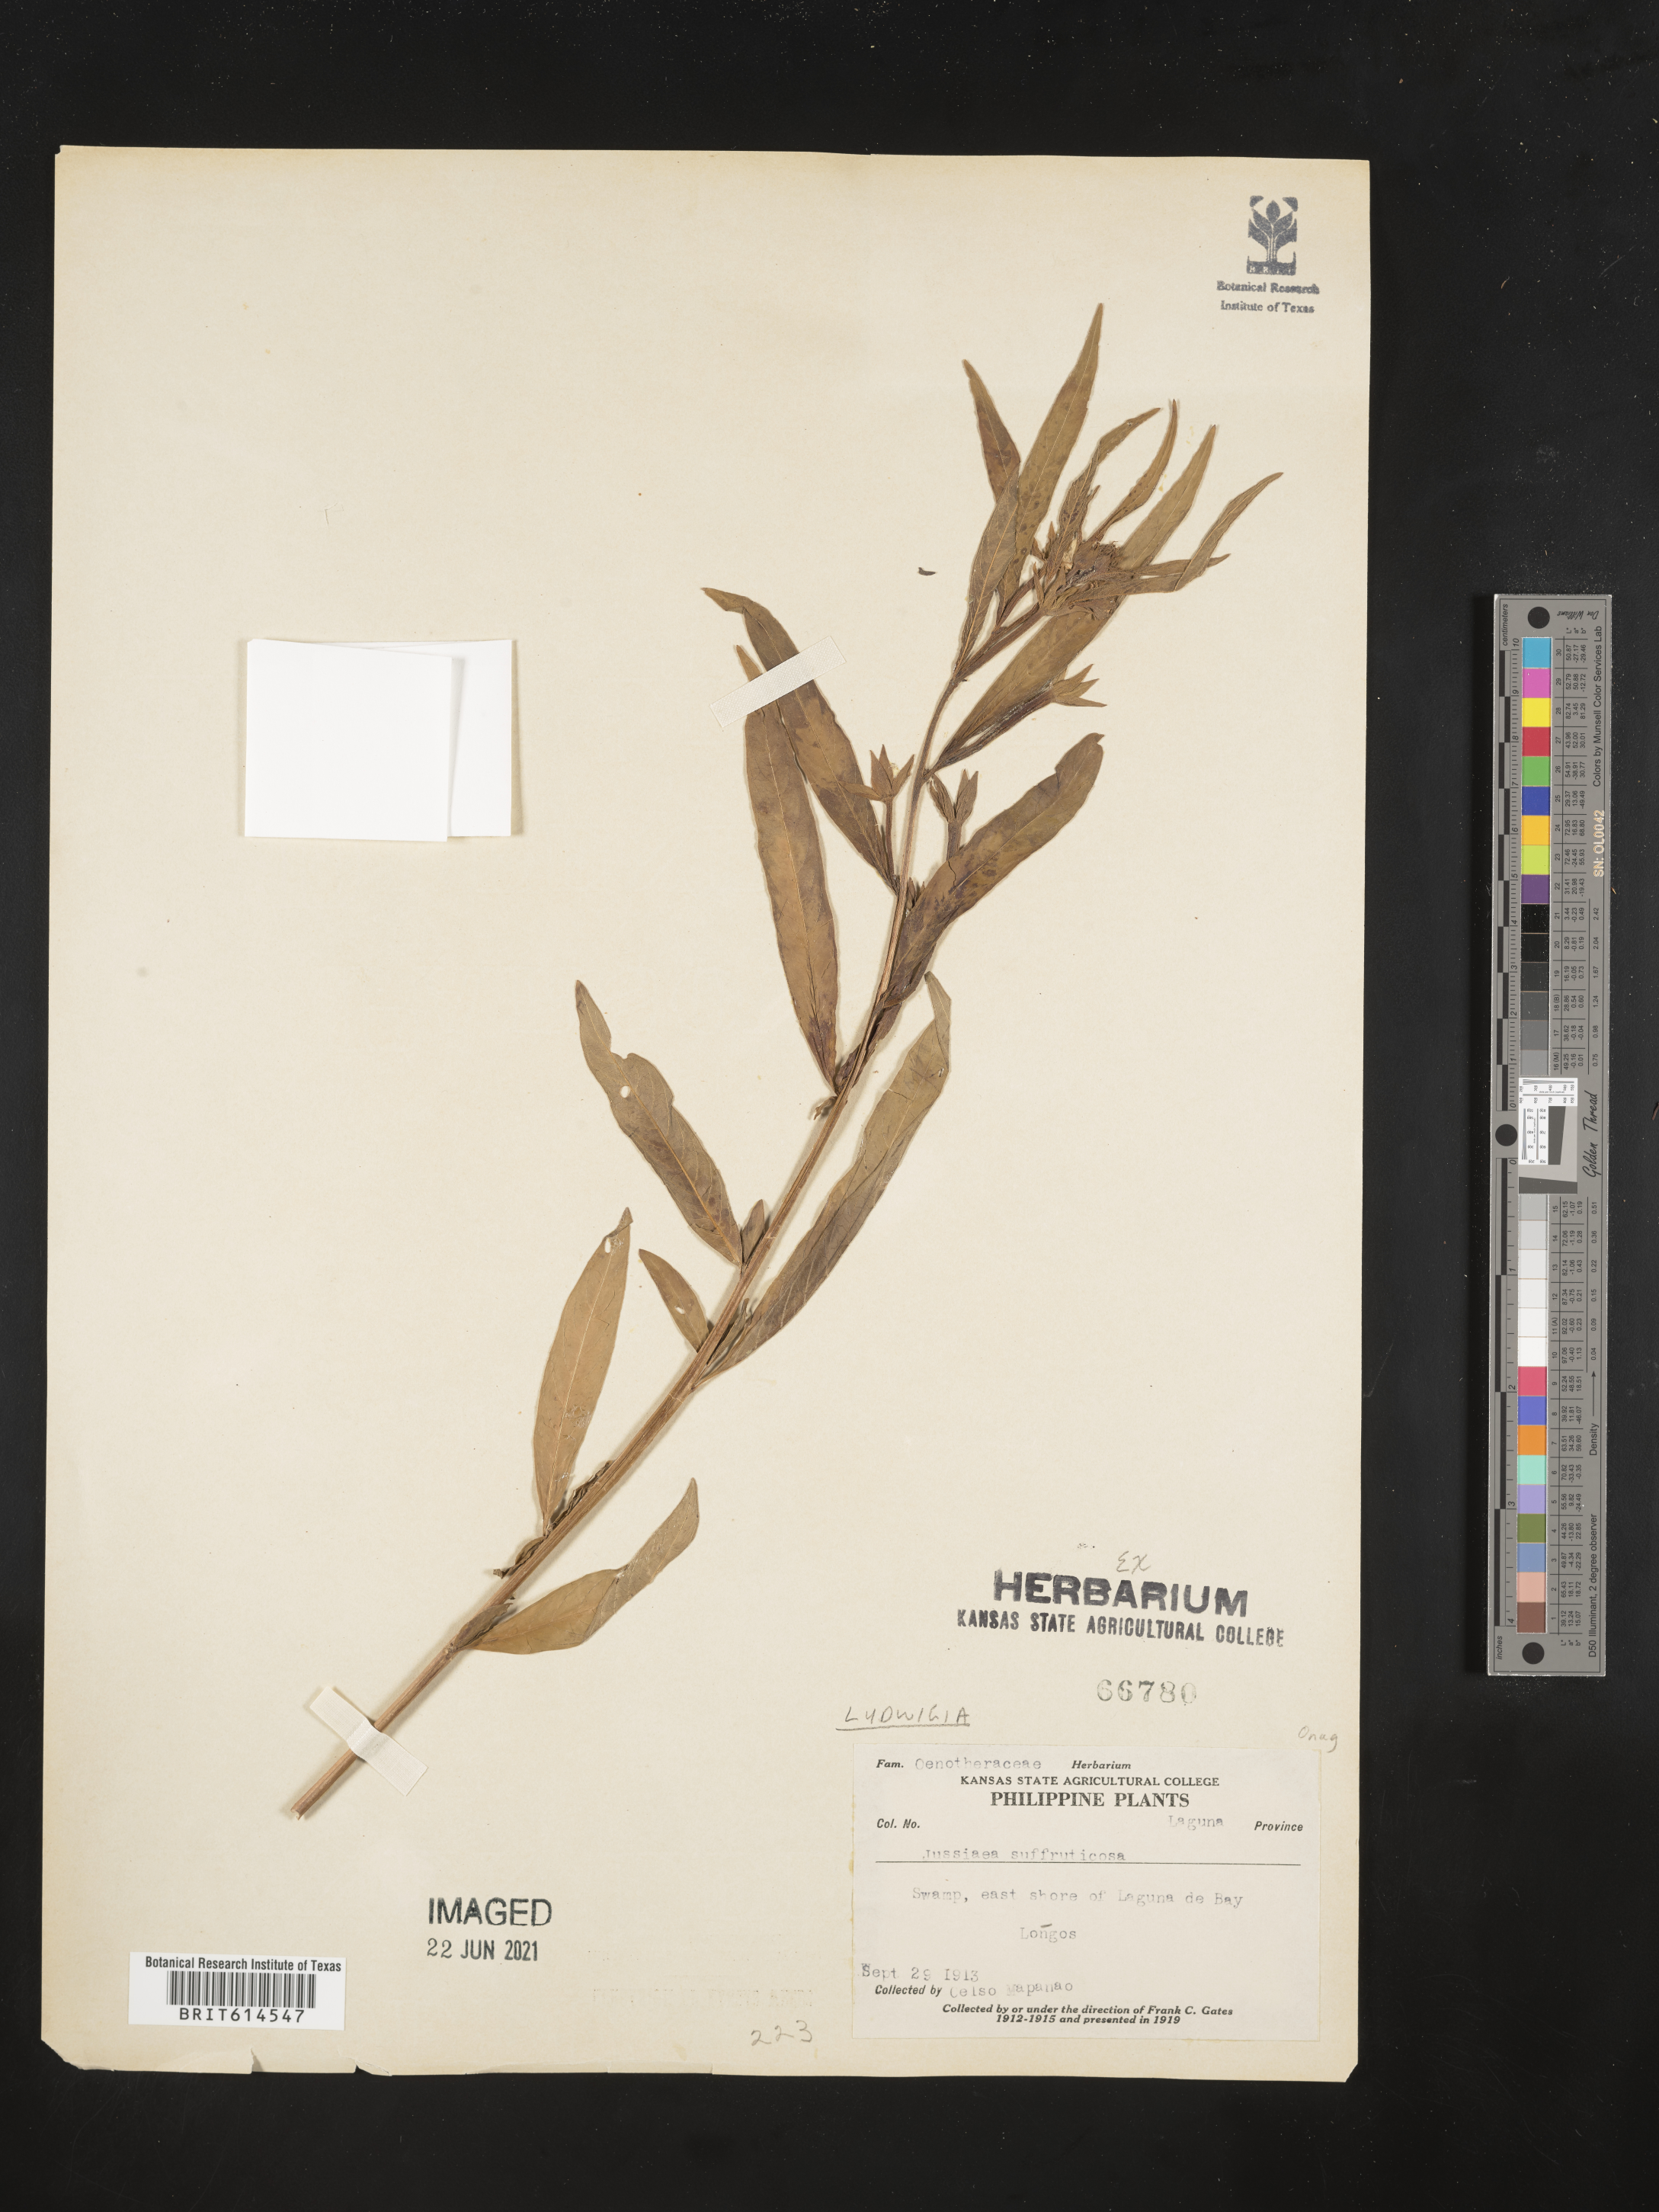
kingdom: Plantae
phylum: Tracheophyta
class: Magnoliopsida
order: Myrtales
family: Onagraceae
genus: Ludwigia
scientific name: Ludwigia octovalvis
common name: Water-primrose
